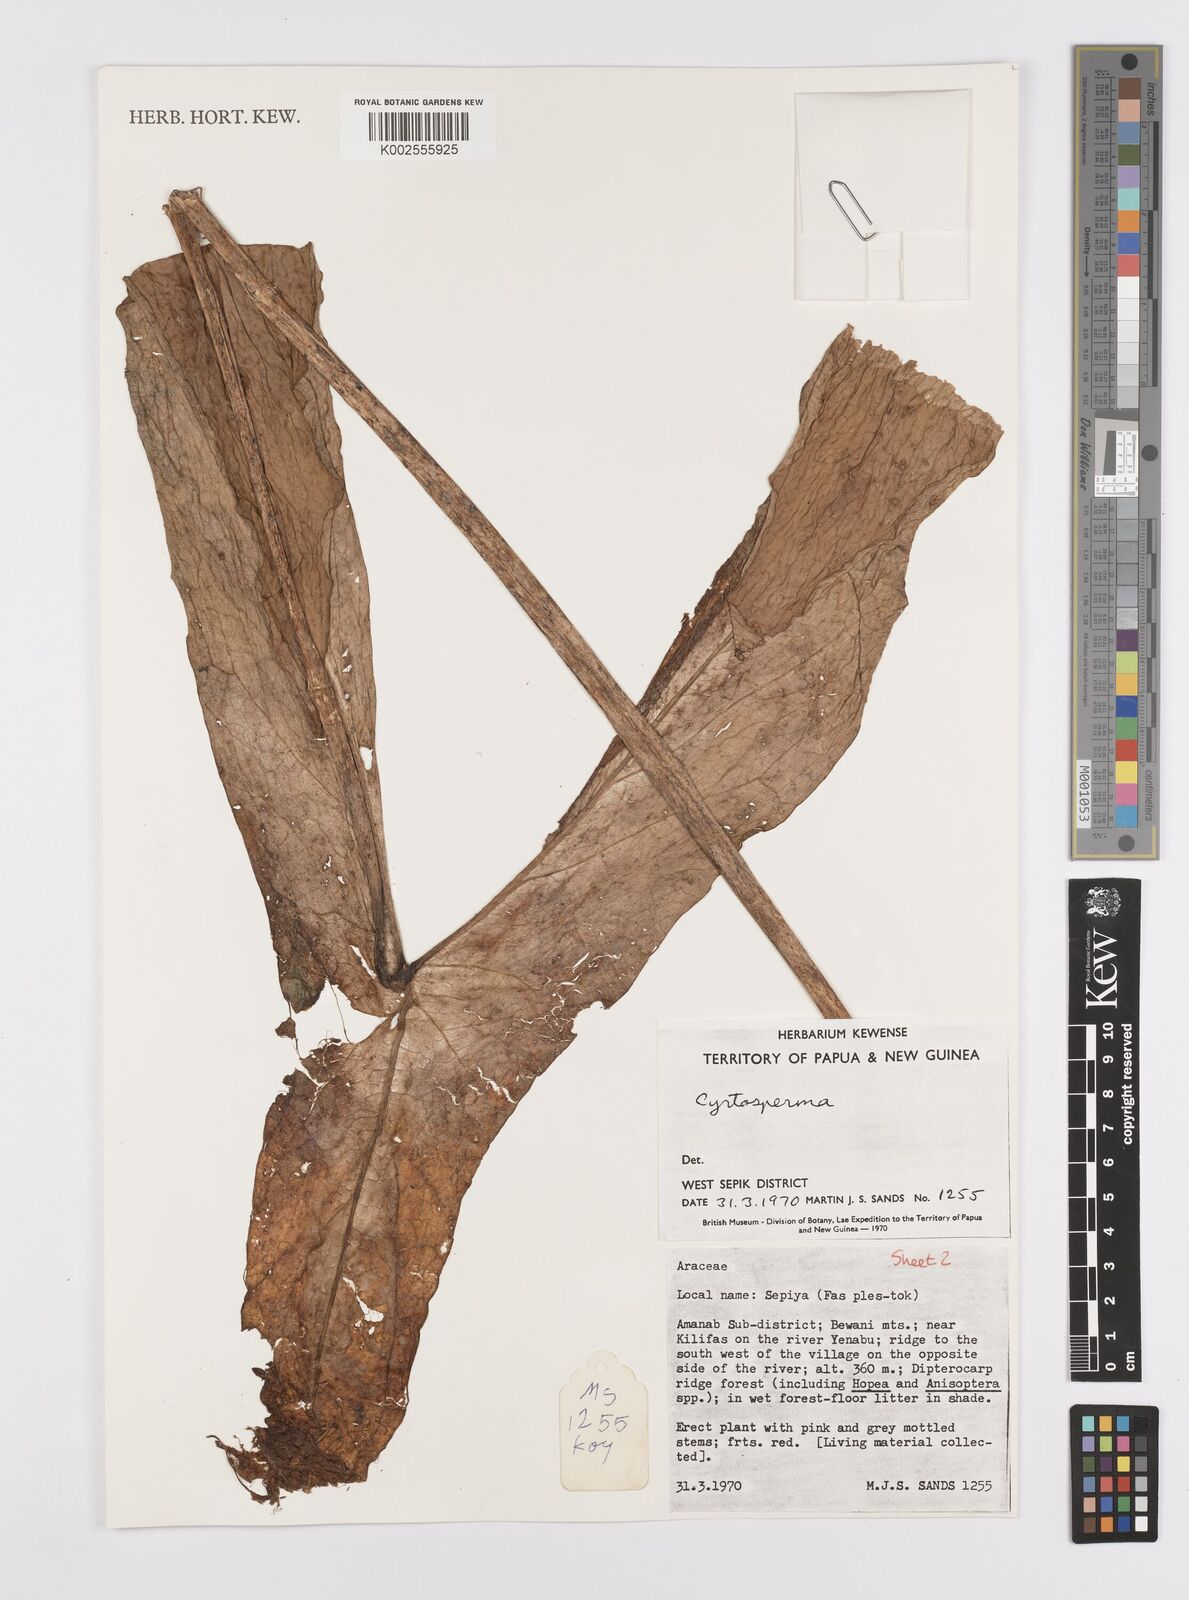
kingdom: Plantae
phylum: Tracheophyta
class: Liliopsida
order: Alismatales
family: Araceae
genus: Cyrtosperma
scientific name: Cyrtosperma macrotum
